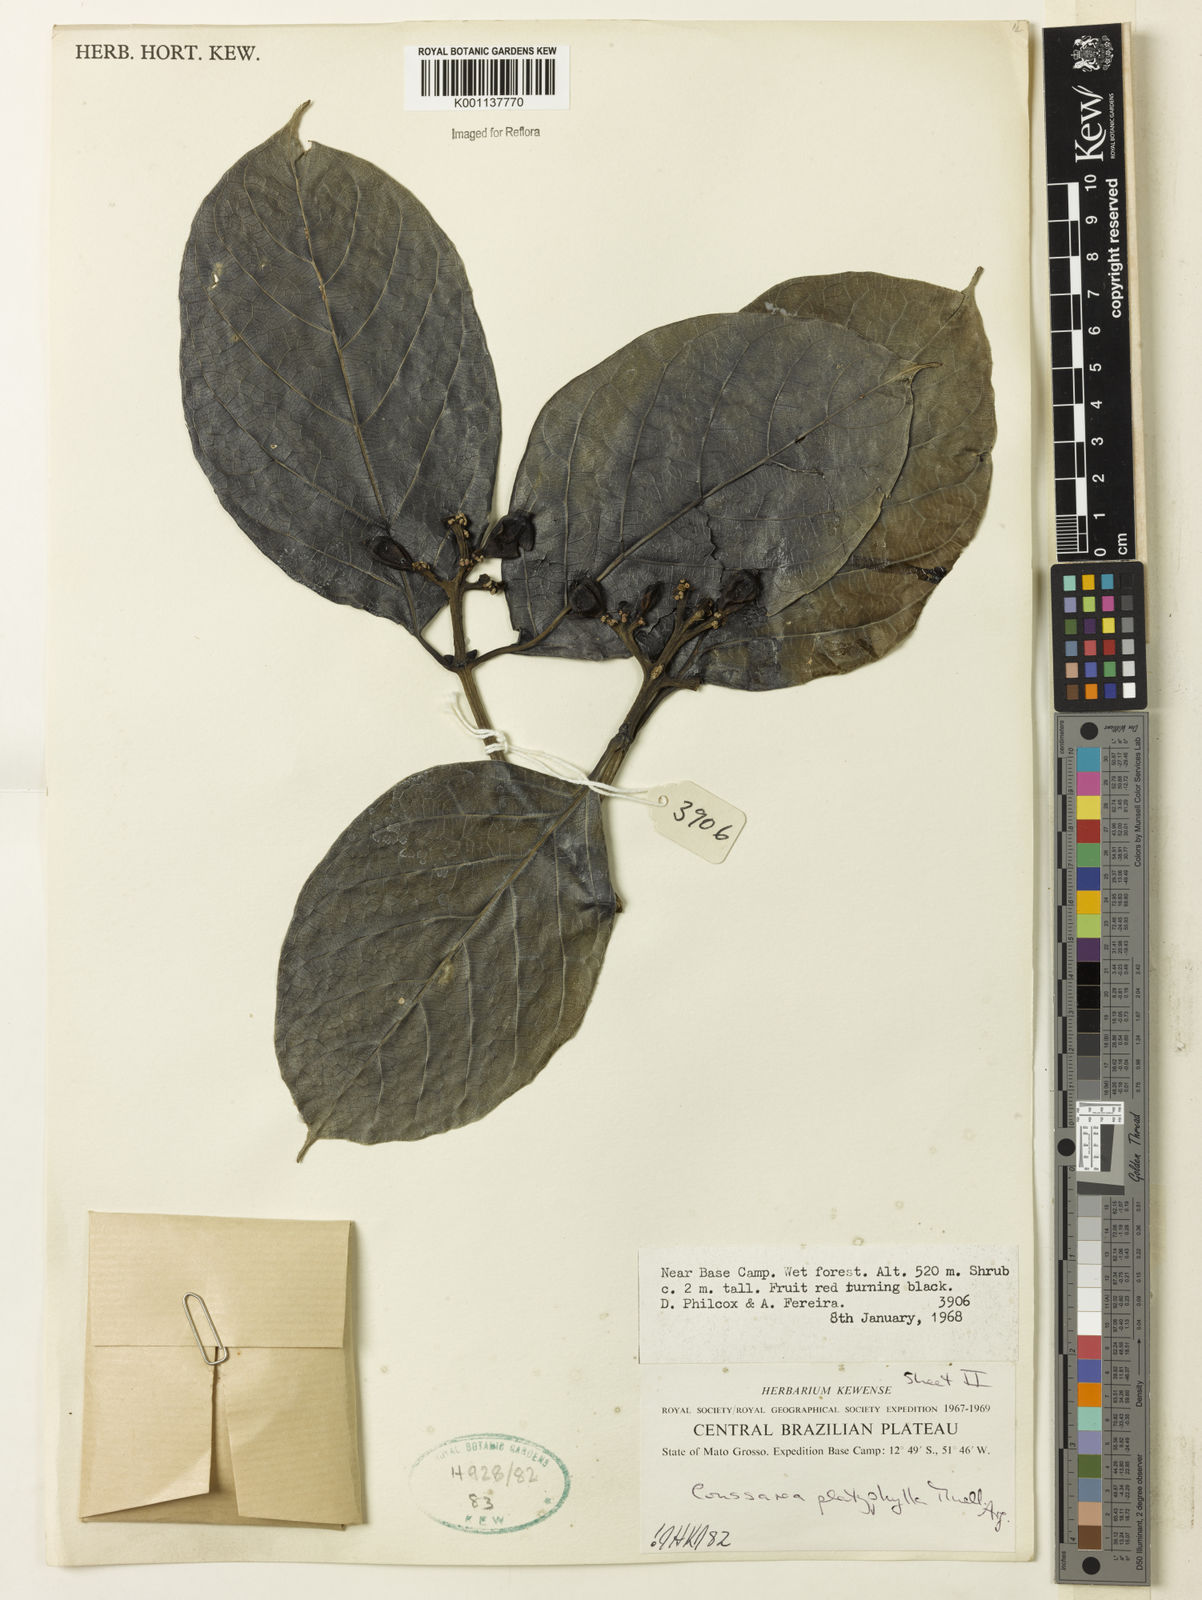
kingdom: Plantae
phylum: Tracheophyta
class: Magnoliopsida
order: Gentianales
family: Rubiaceae
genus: Coussarea
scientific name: Coussarea
